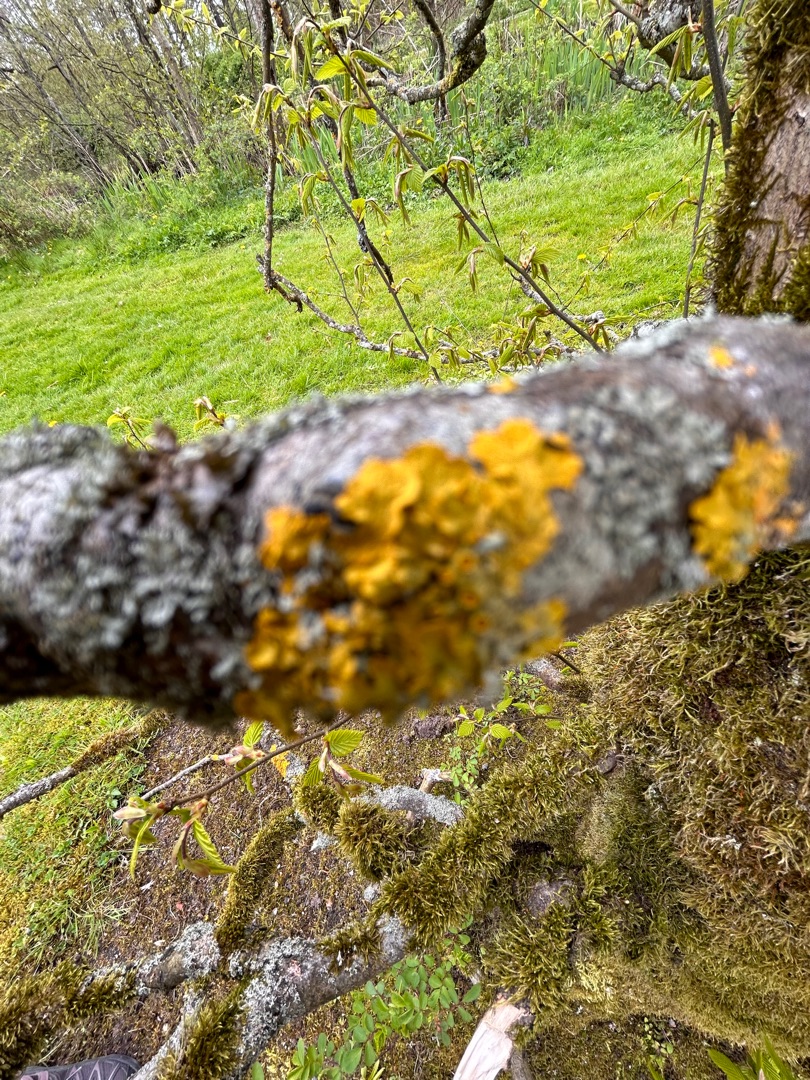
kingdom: Fungi
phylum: Ascomycota
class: Lecanoromycetes
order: Teloschistales
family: Teloschistaceae
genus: Xanthoria
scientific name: Xanthoria parietina
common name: Almindelig væggelav
